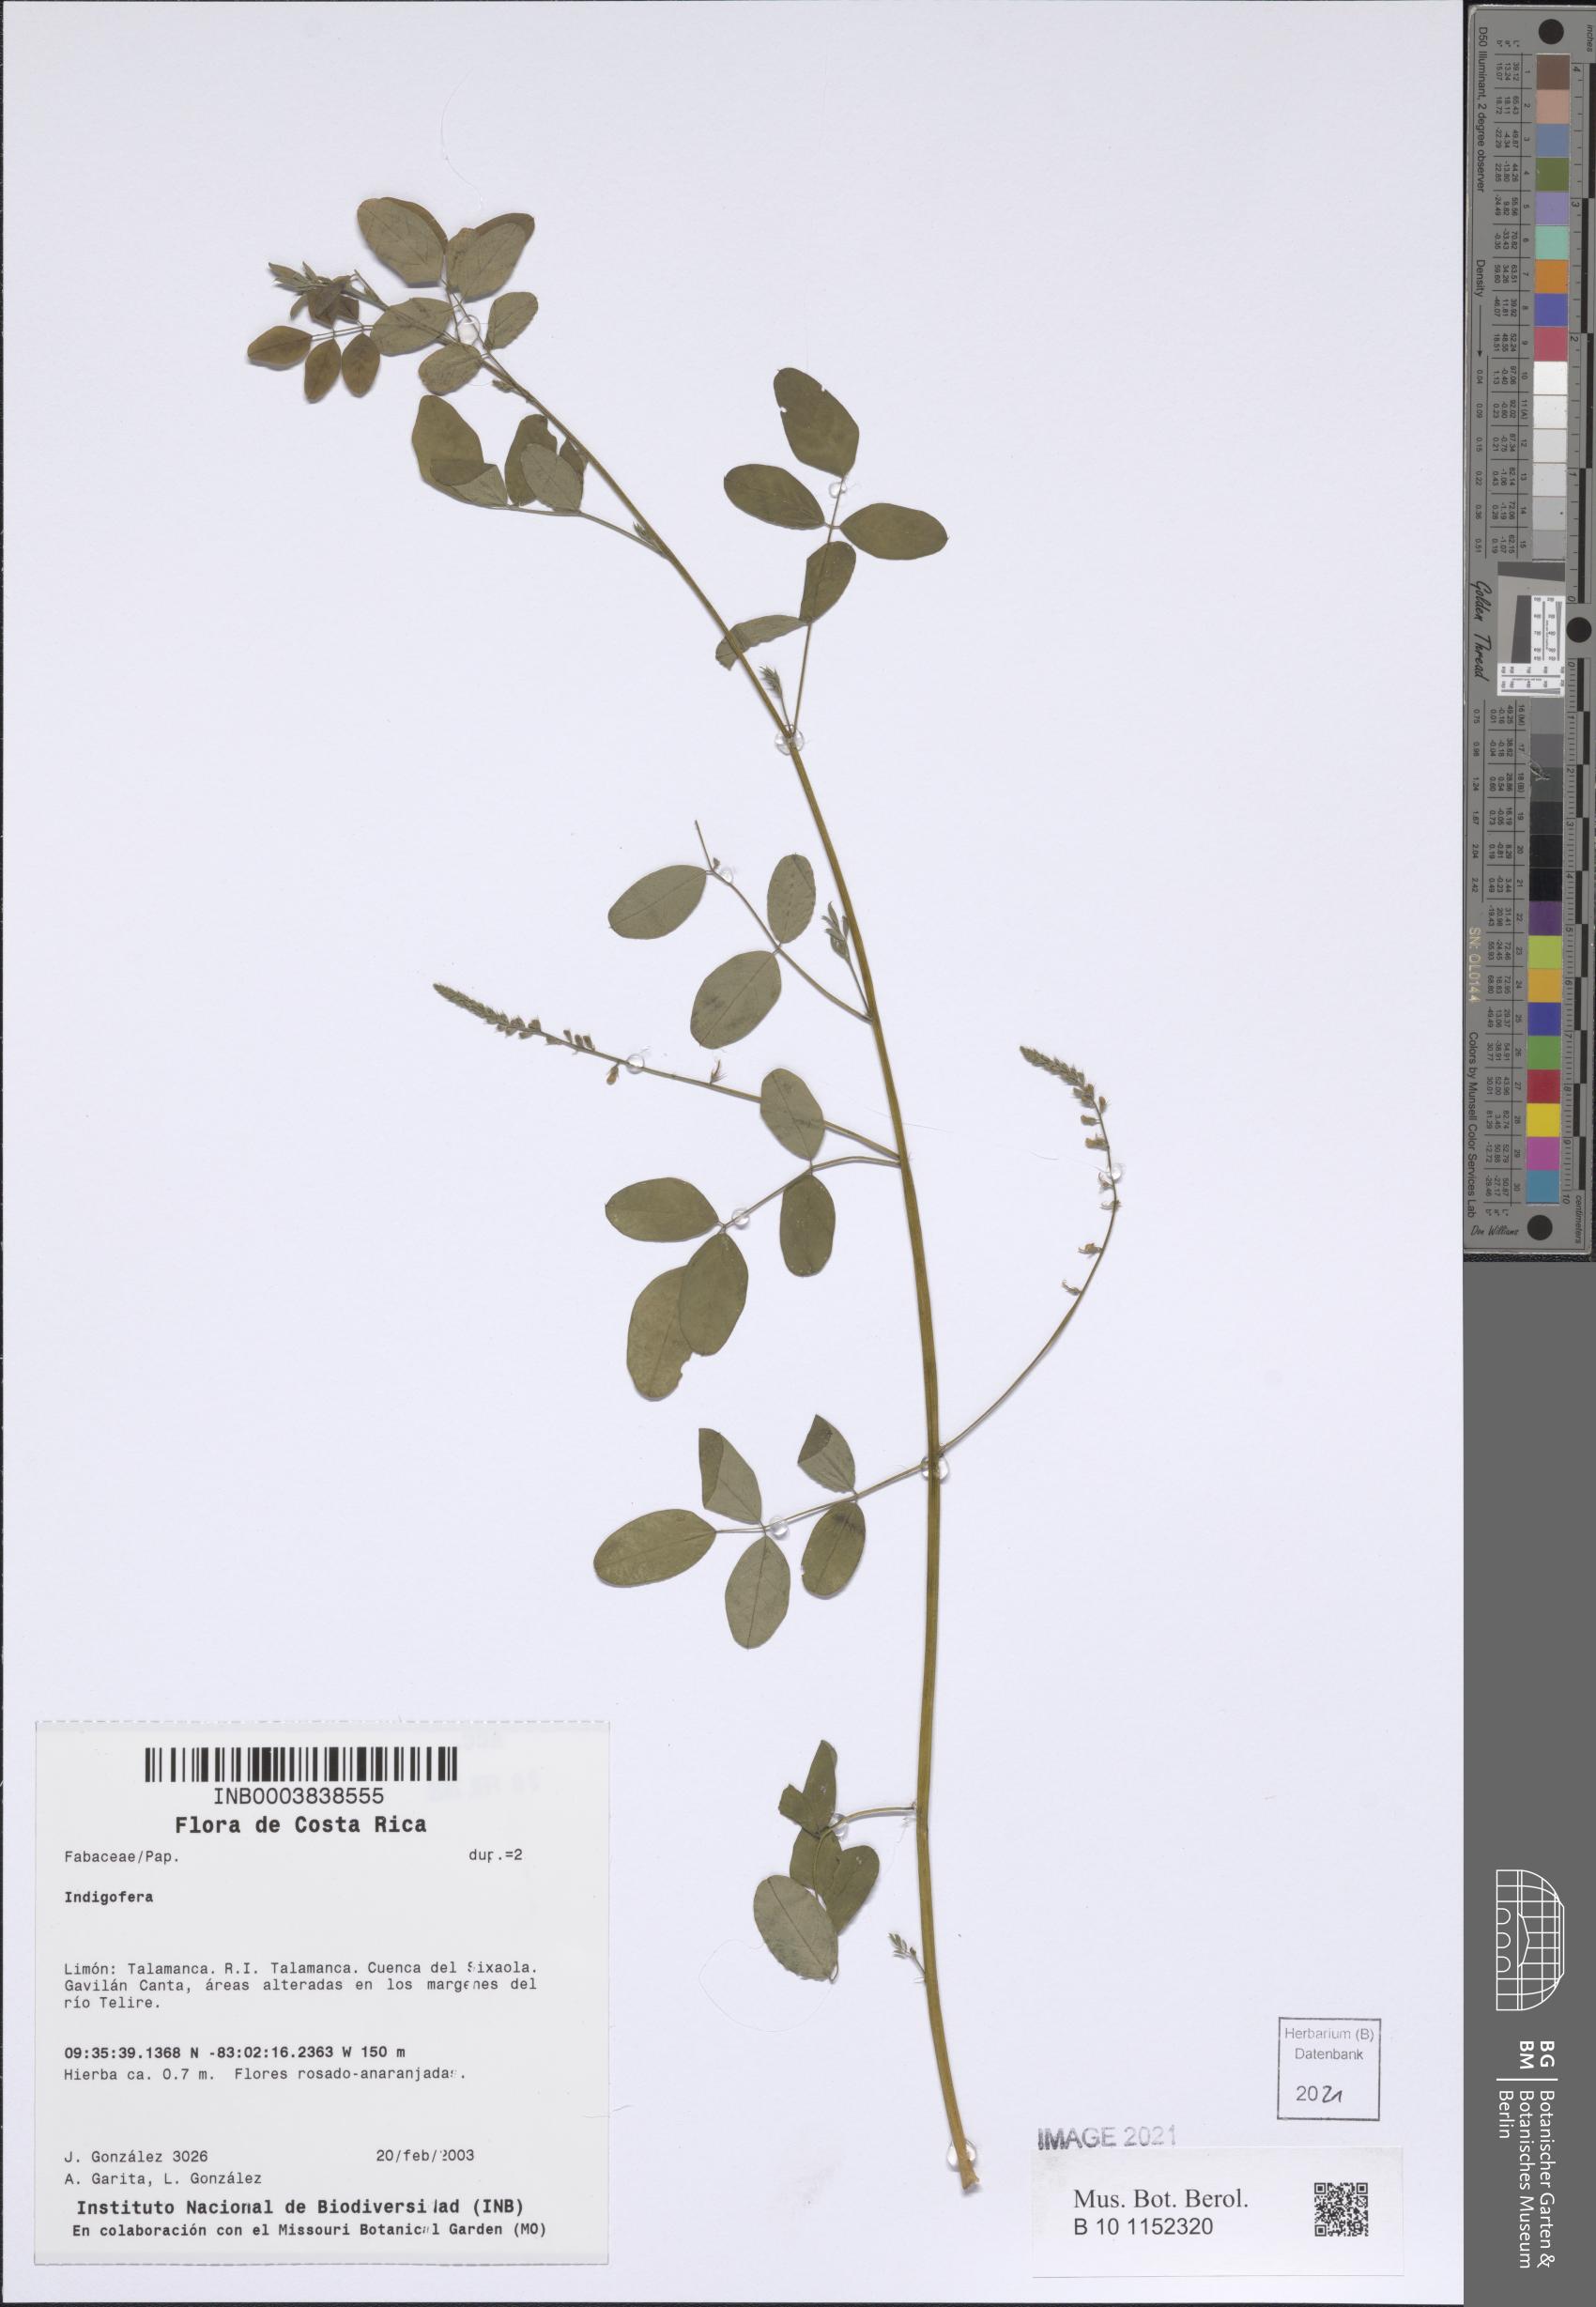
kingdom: Plantae
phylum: Tracheophyta
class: Magnoliopsida
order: Fabales
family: Fabaceae
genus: Indigofera
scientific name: Indigofera
